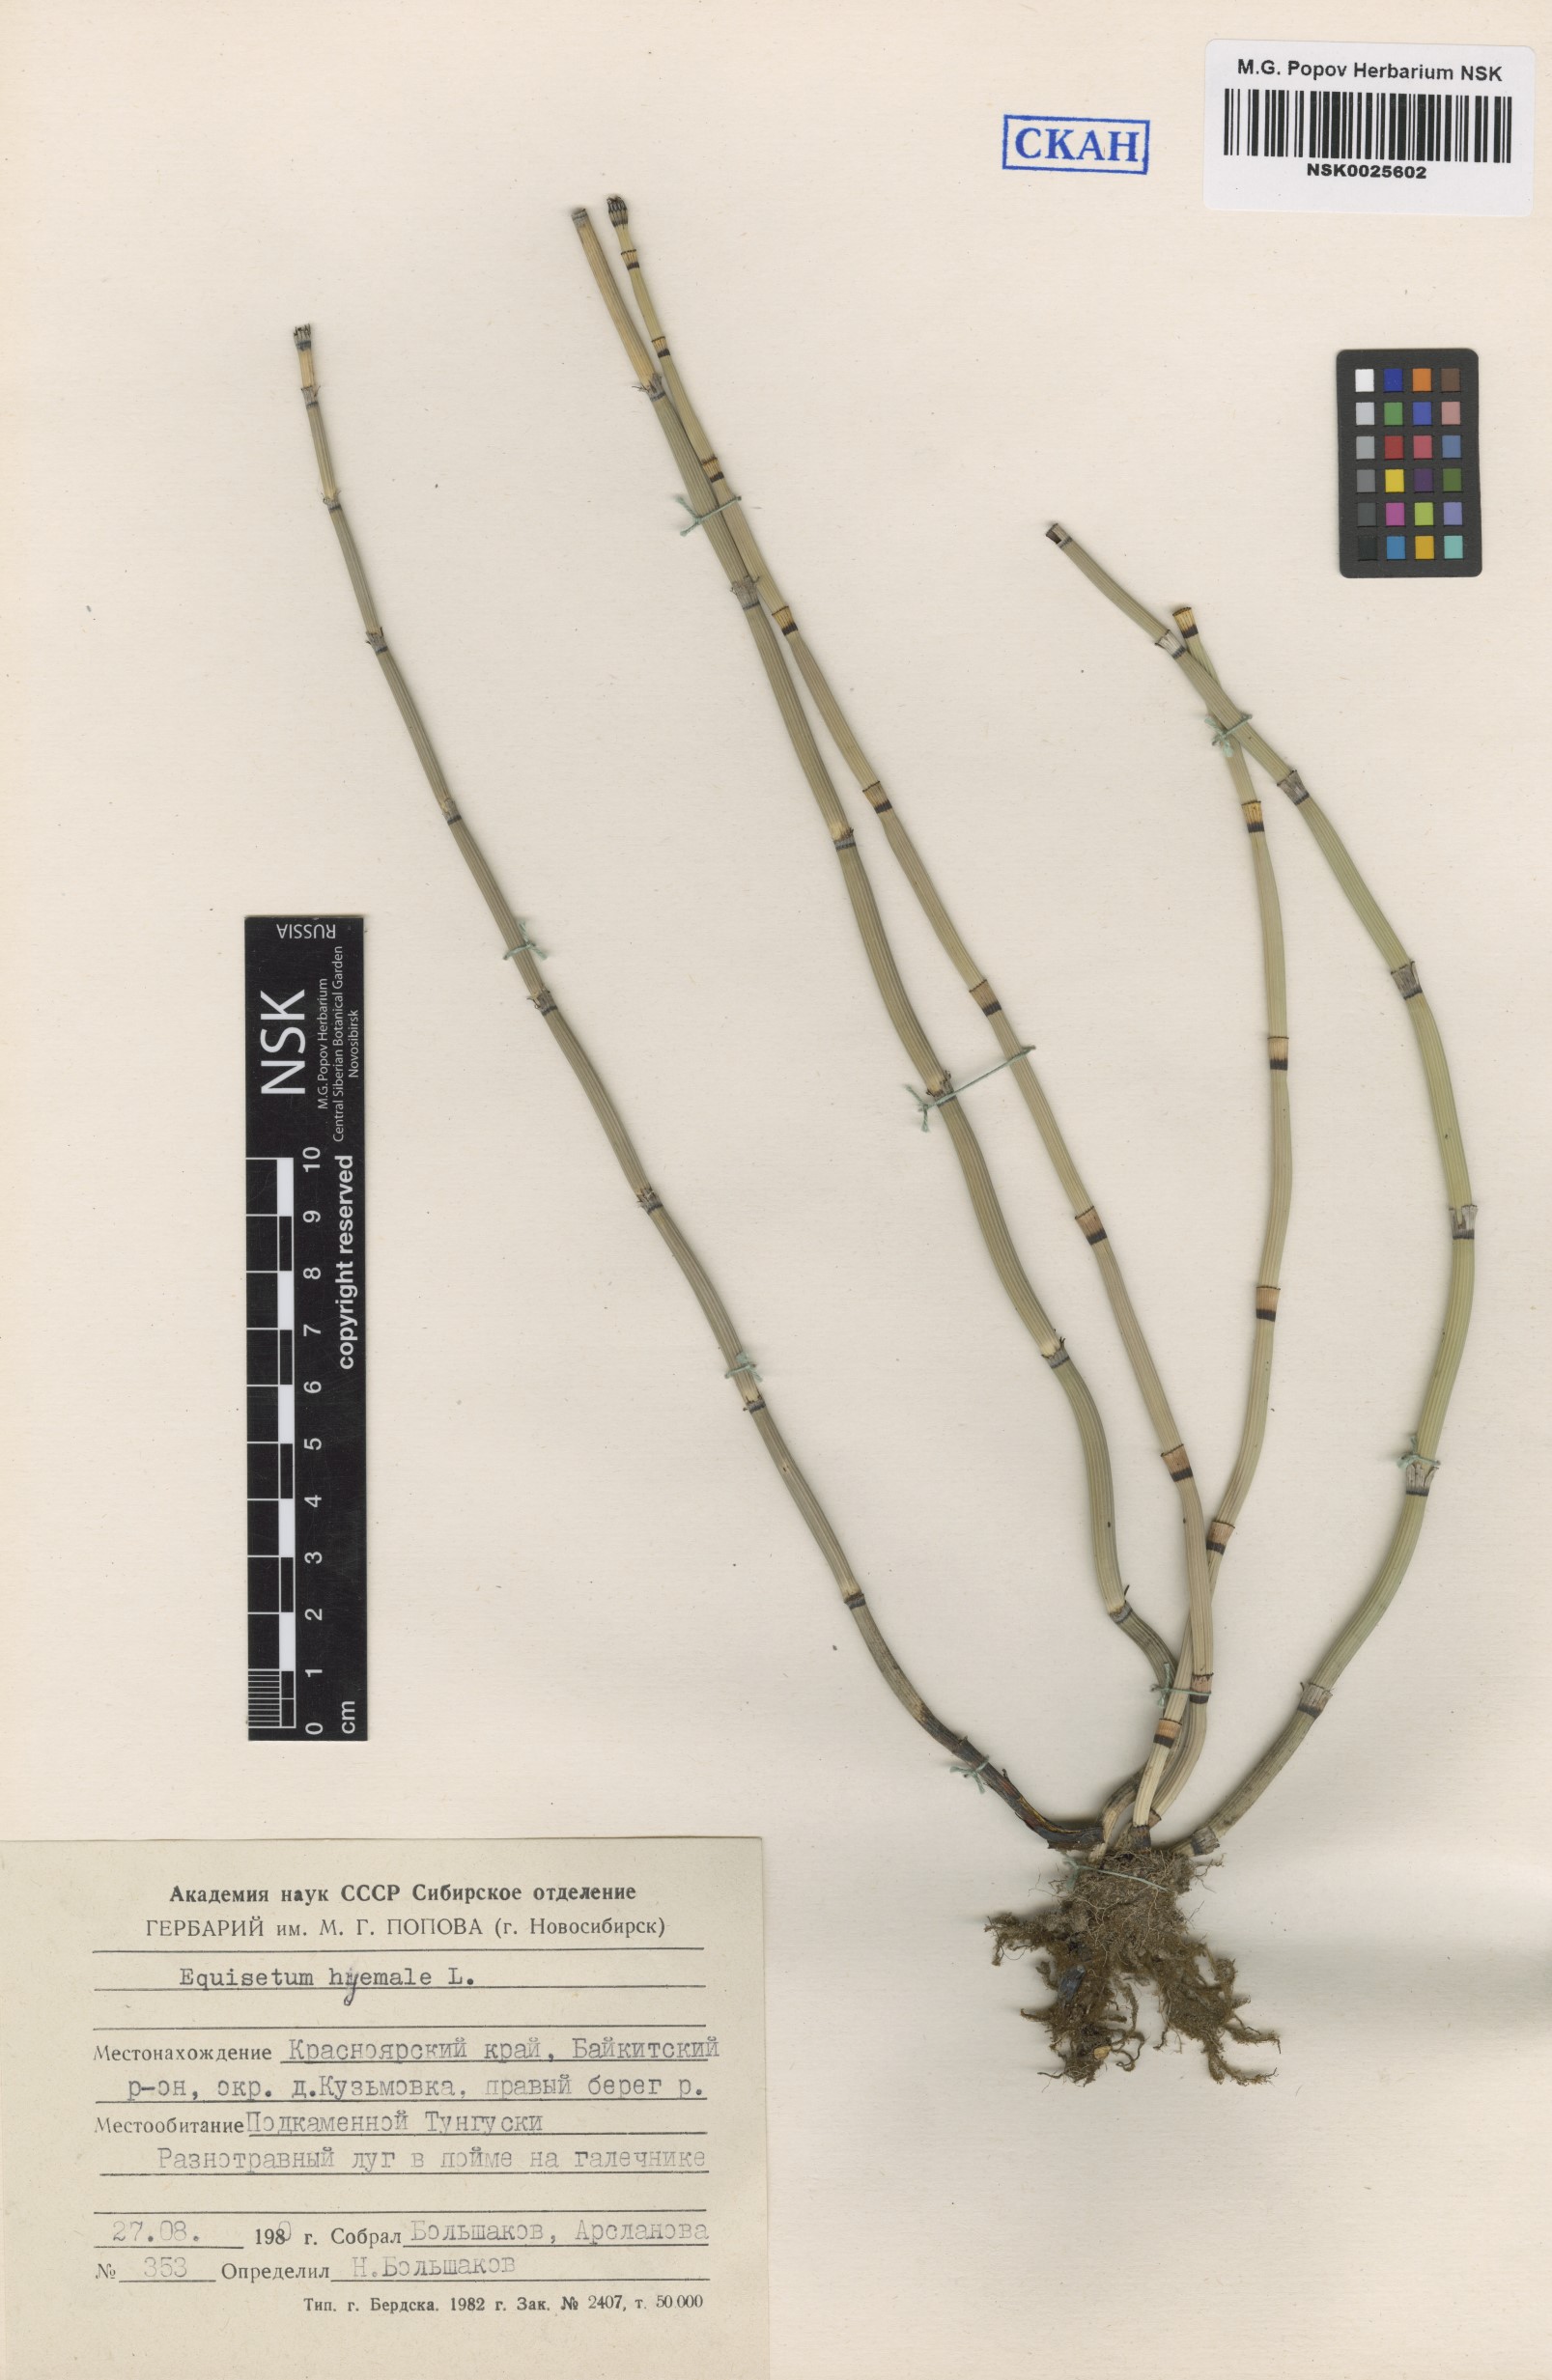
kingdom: Plantae
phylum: Tracheophyta
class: Polypodiopsida
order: Equisetales
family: Equisetaceae
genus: Equisetum
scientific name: Equisetum hyemale
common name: Rough horsetail
